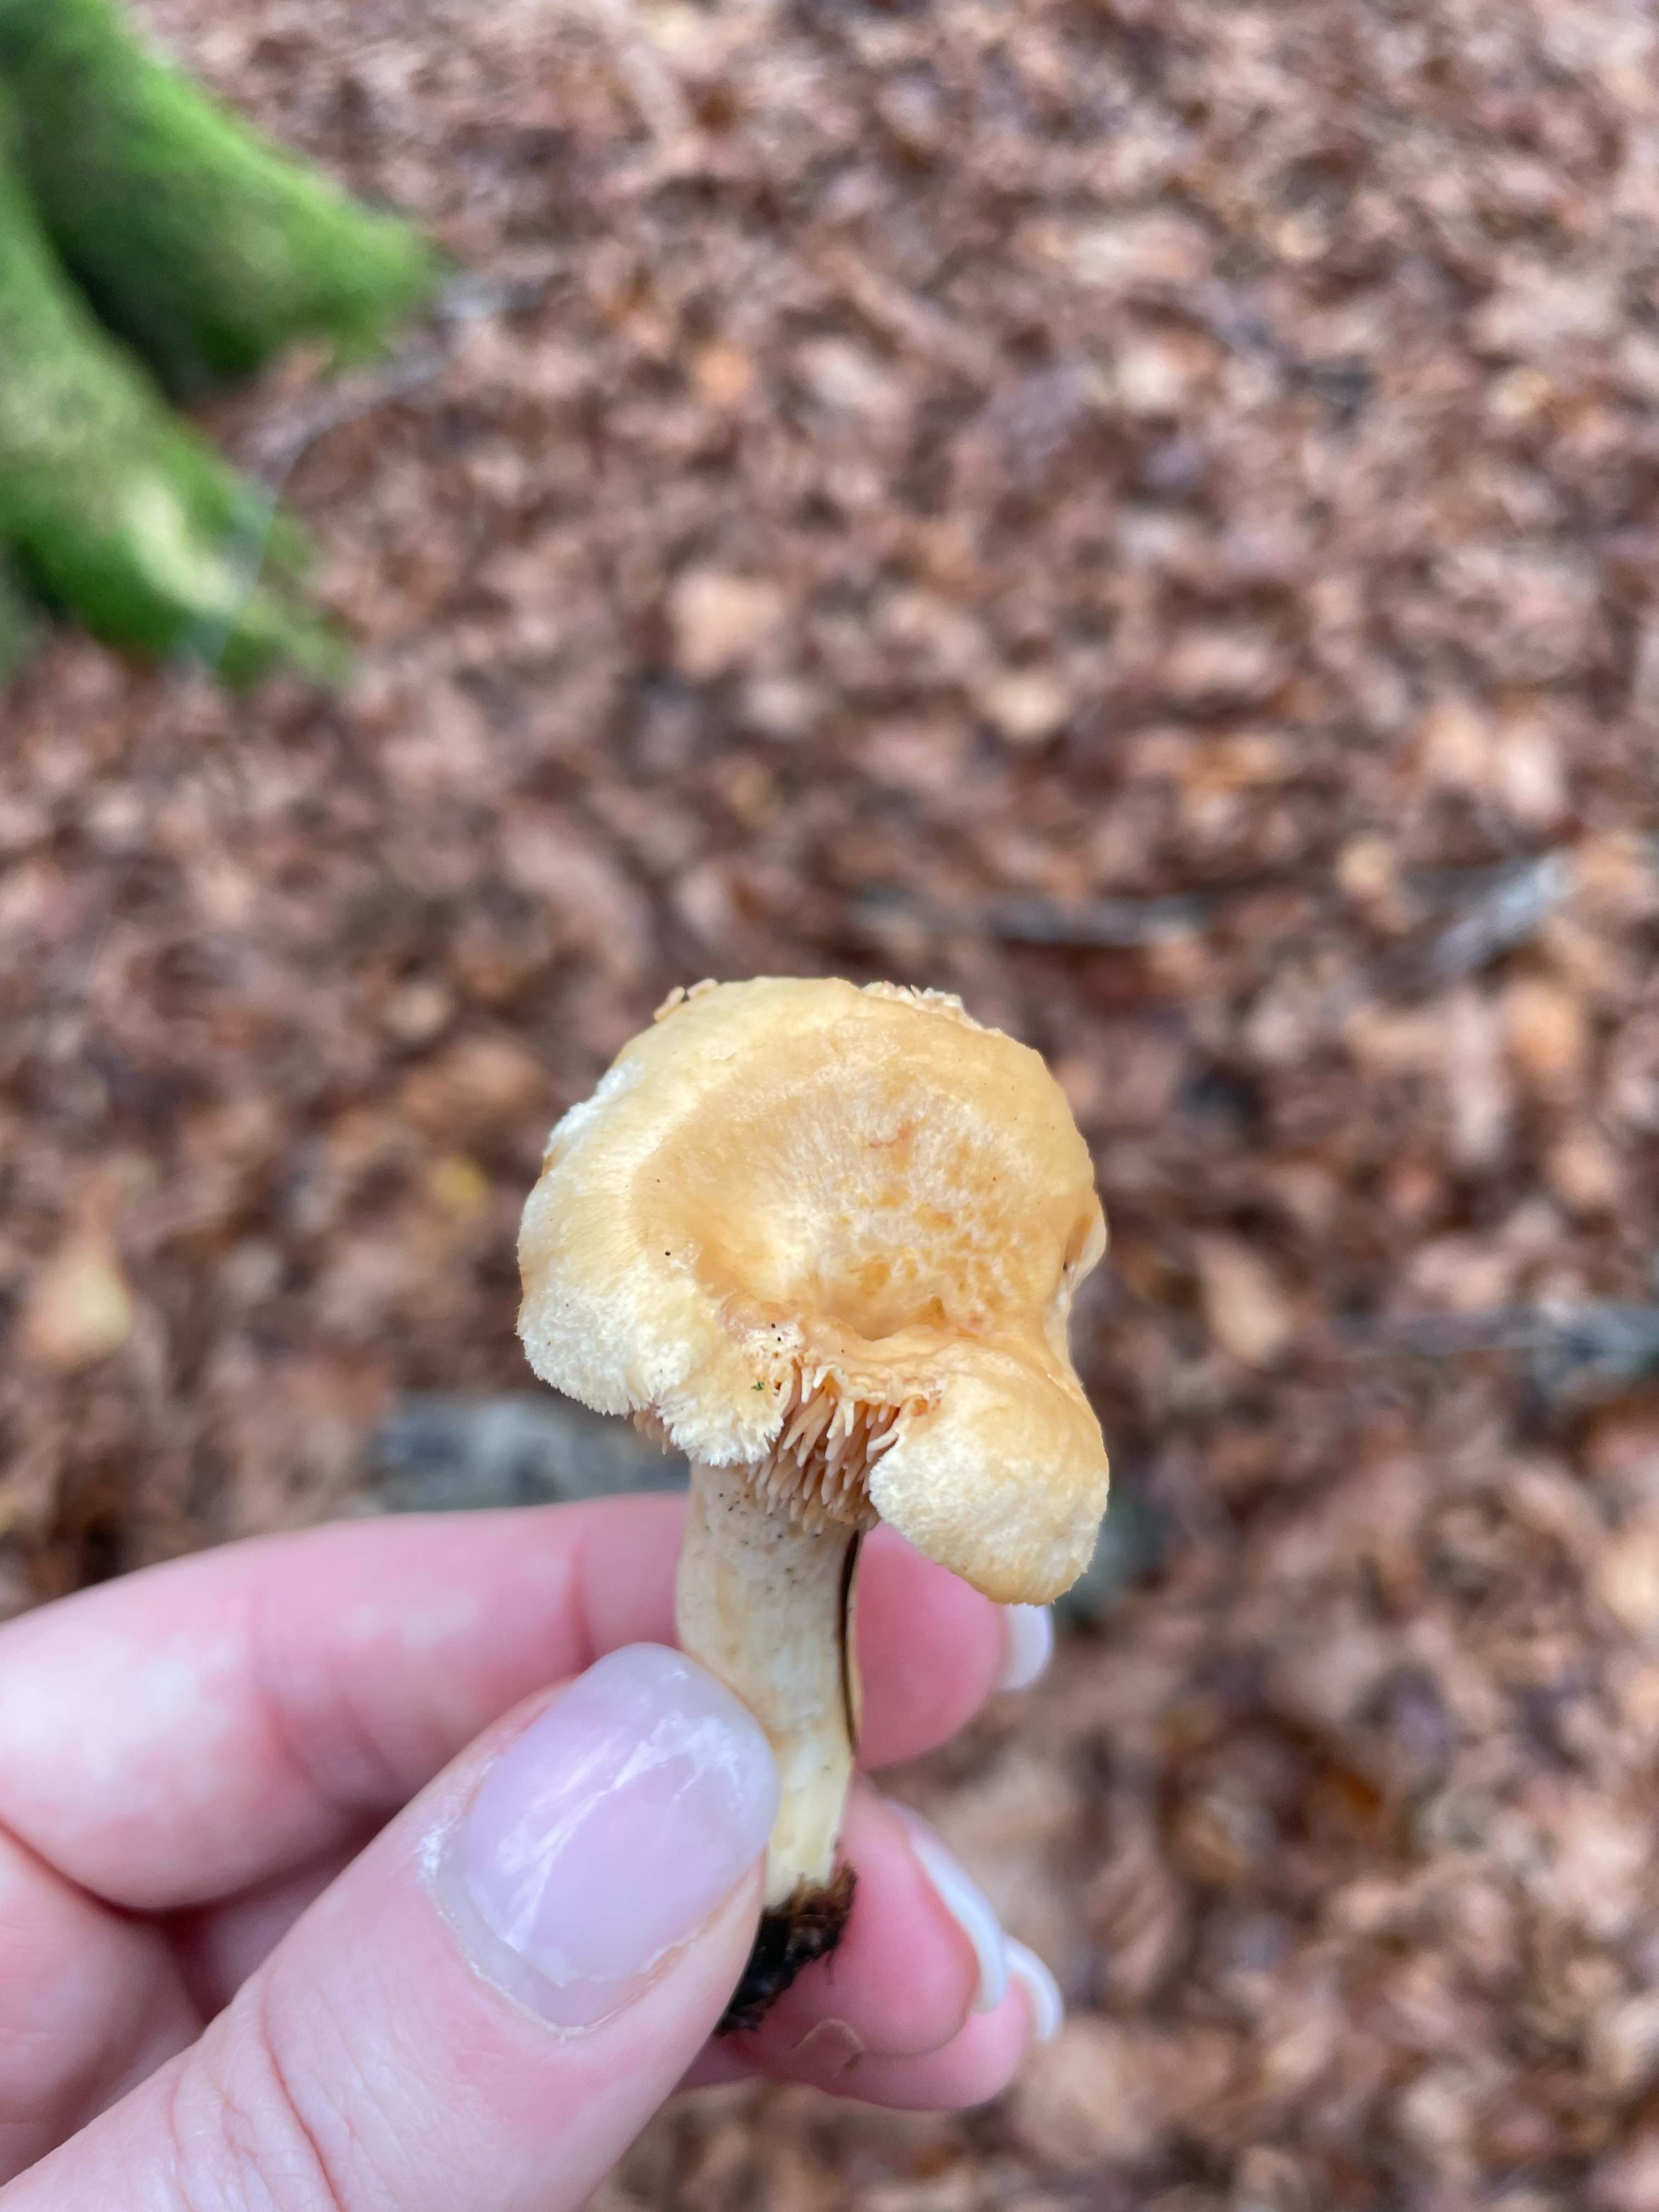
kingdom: Fungi
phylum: Basidiomycota
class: Agaricomycetes
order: Cantharellales
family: Hydnaceae
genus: Hydnum
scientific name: Hydnum
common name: pigsvamp
